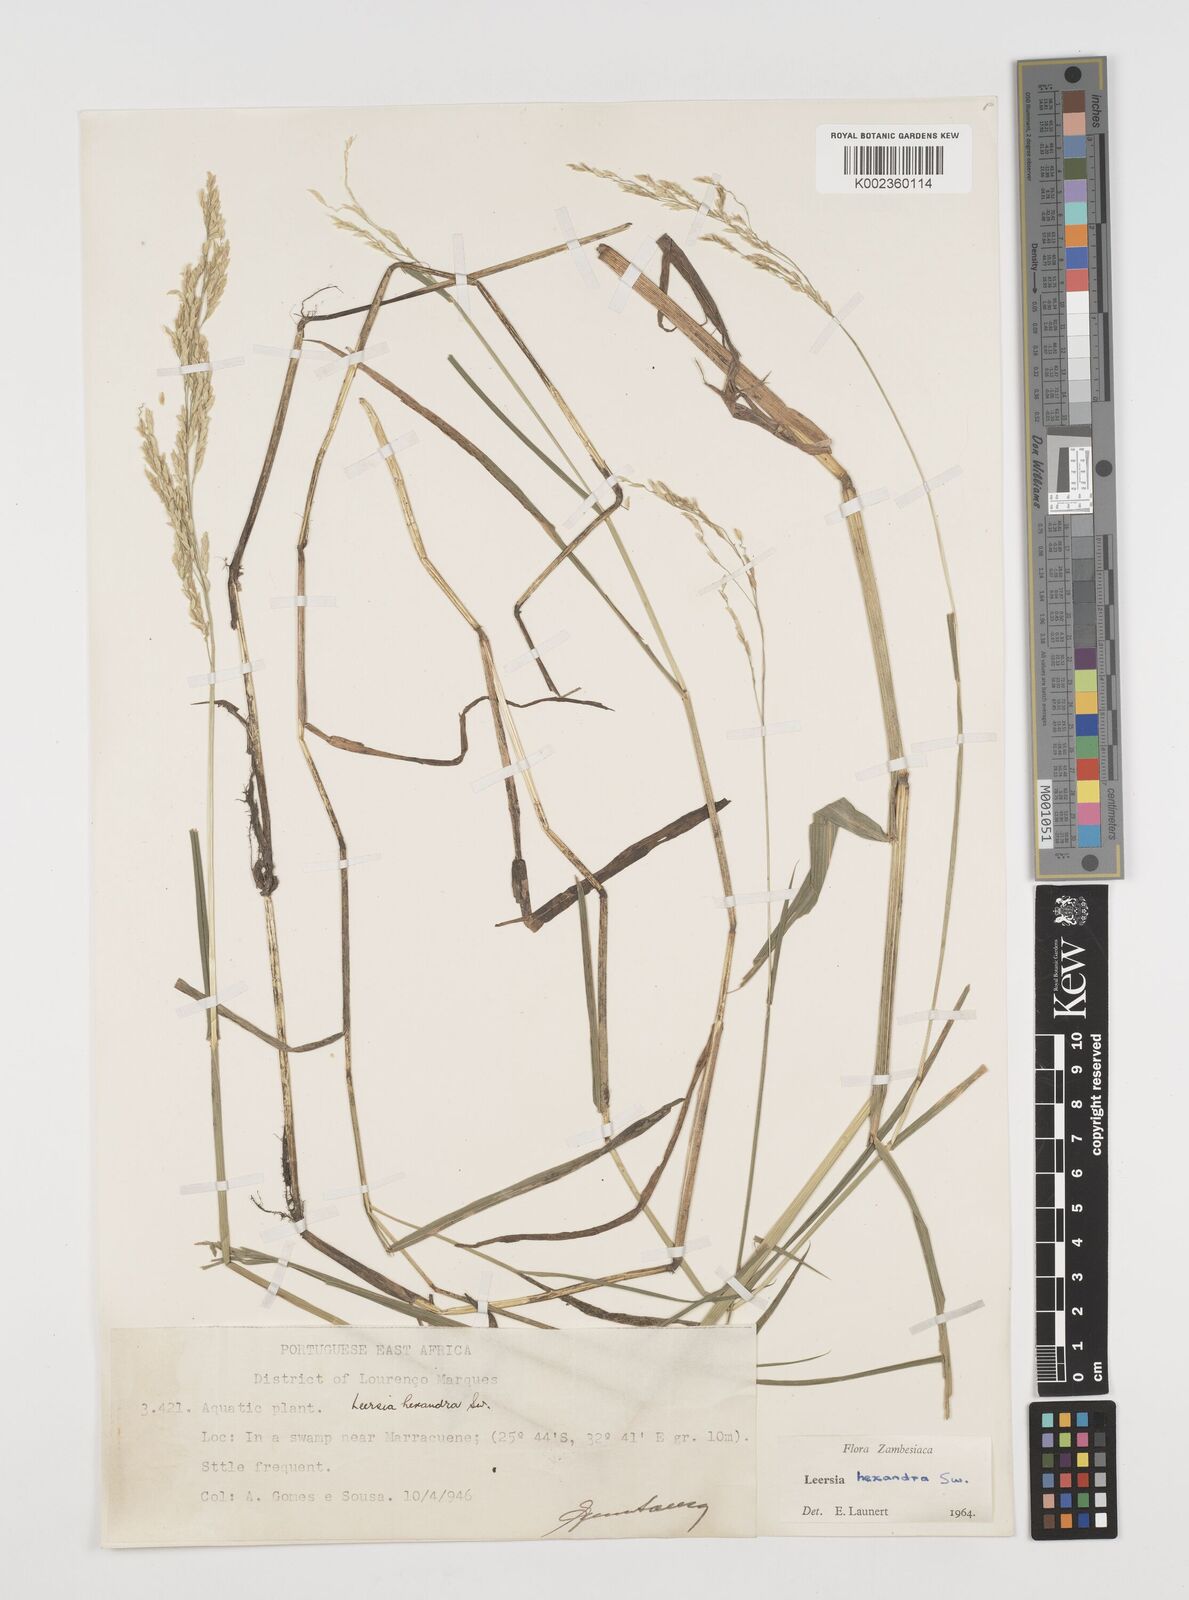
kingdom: Plantae
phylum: Tracheophyta
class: Liliopsida
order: Poales
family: Poaceae
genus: Leersia
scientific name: Leersia hexandra
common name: Southern cut grass
